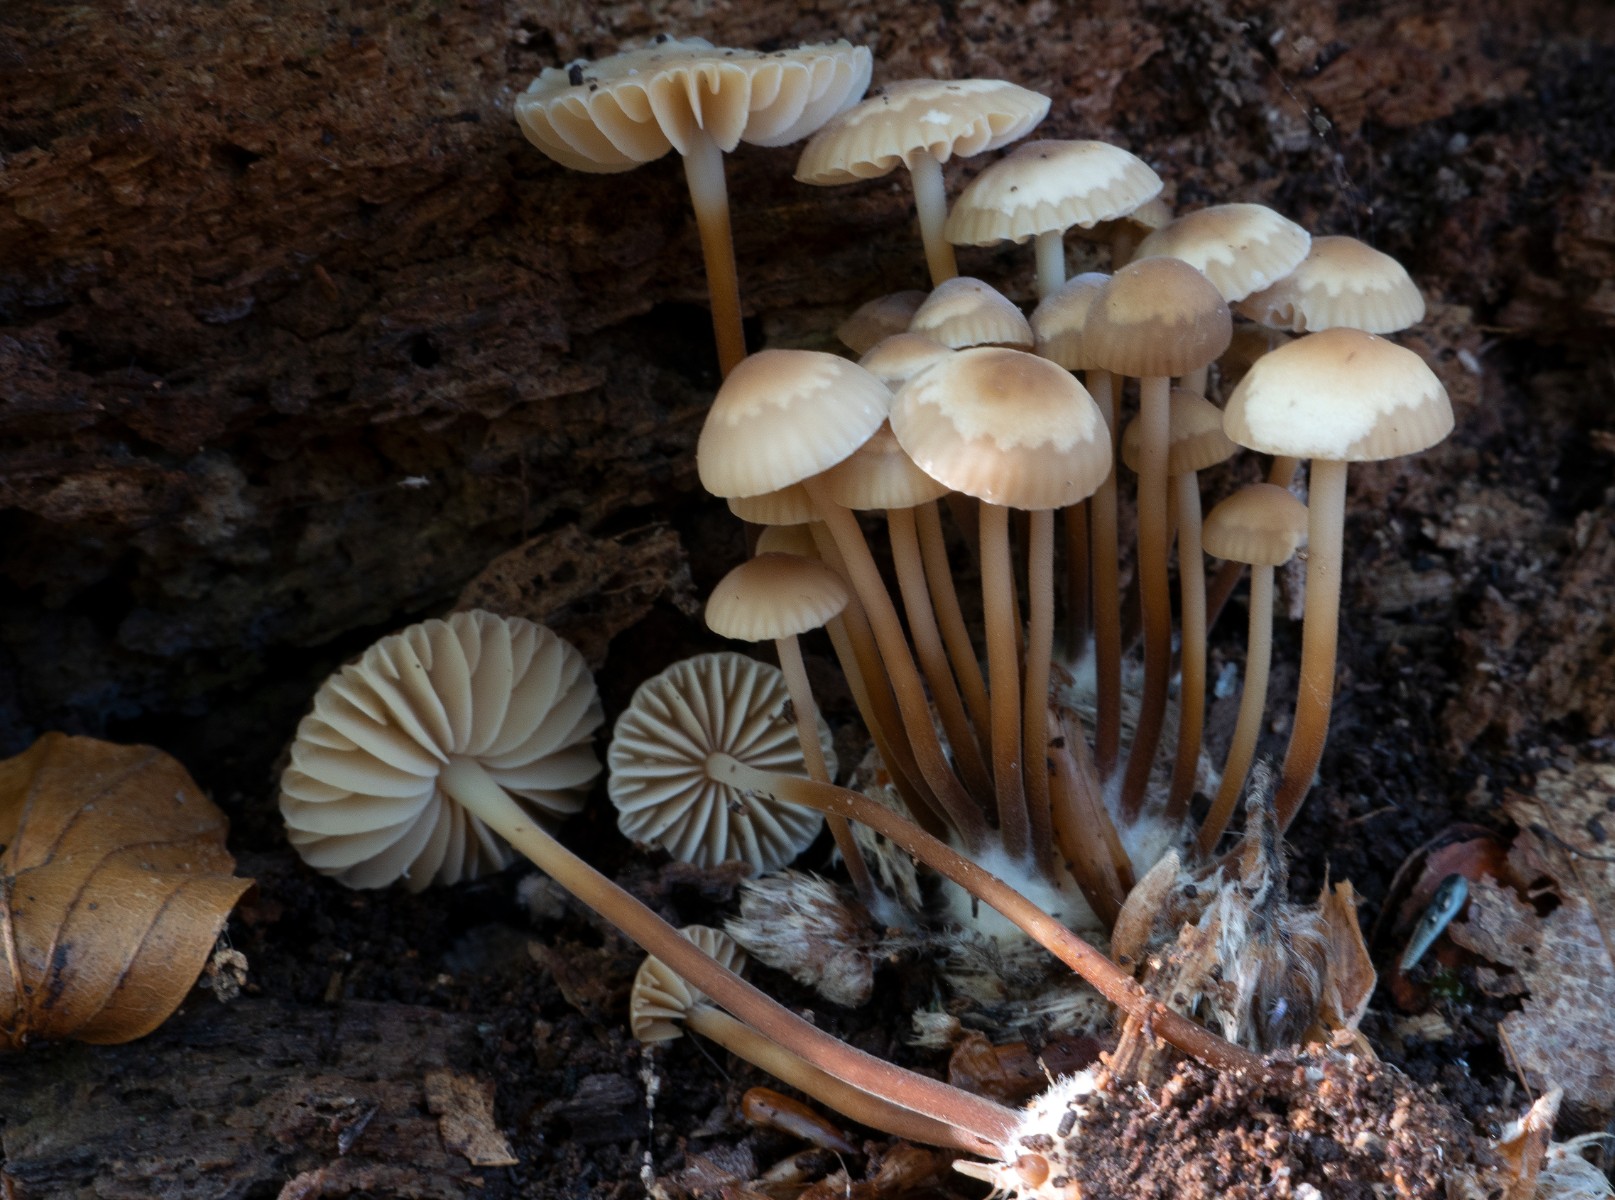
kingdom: Fungi
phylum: Basidiomycota
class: Agaricomycetes
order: Agaricales
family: Marasmiaceae
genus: Marasmius
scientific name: Marasmius torquescens
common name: filtfodet bruskhat
